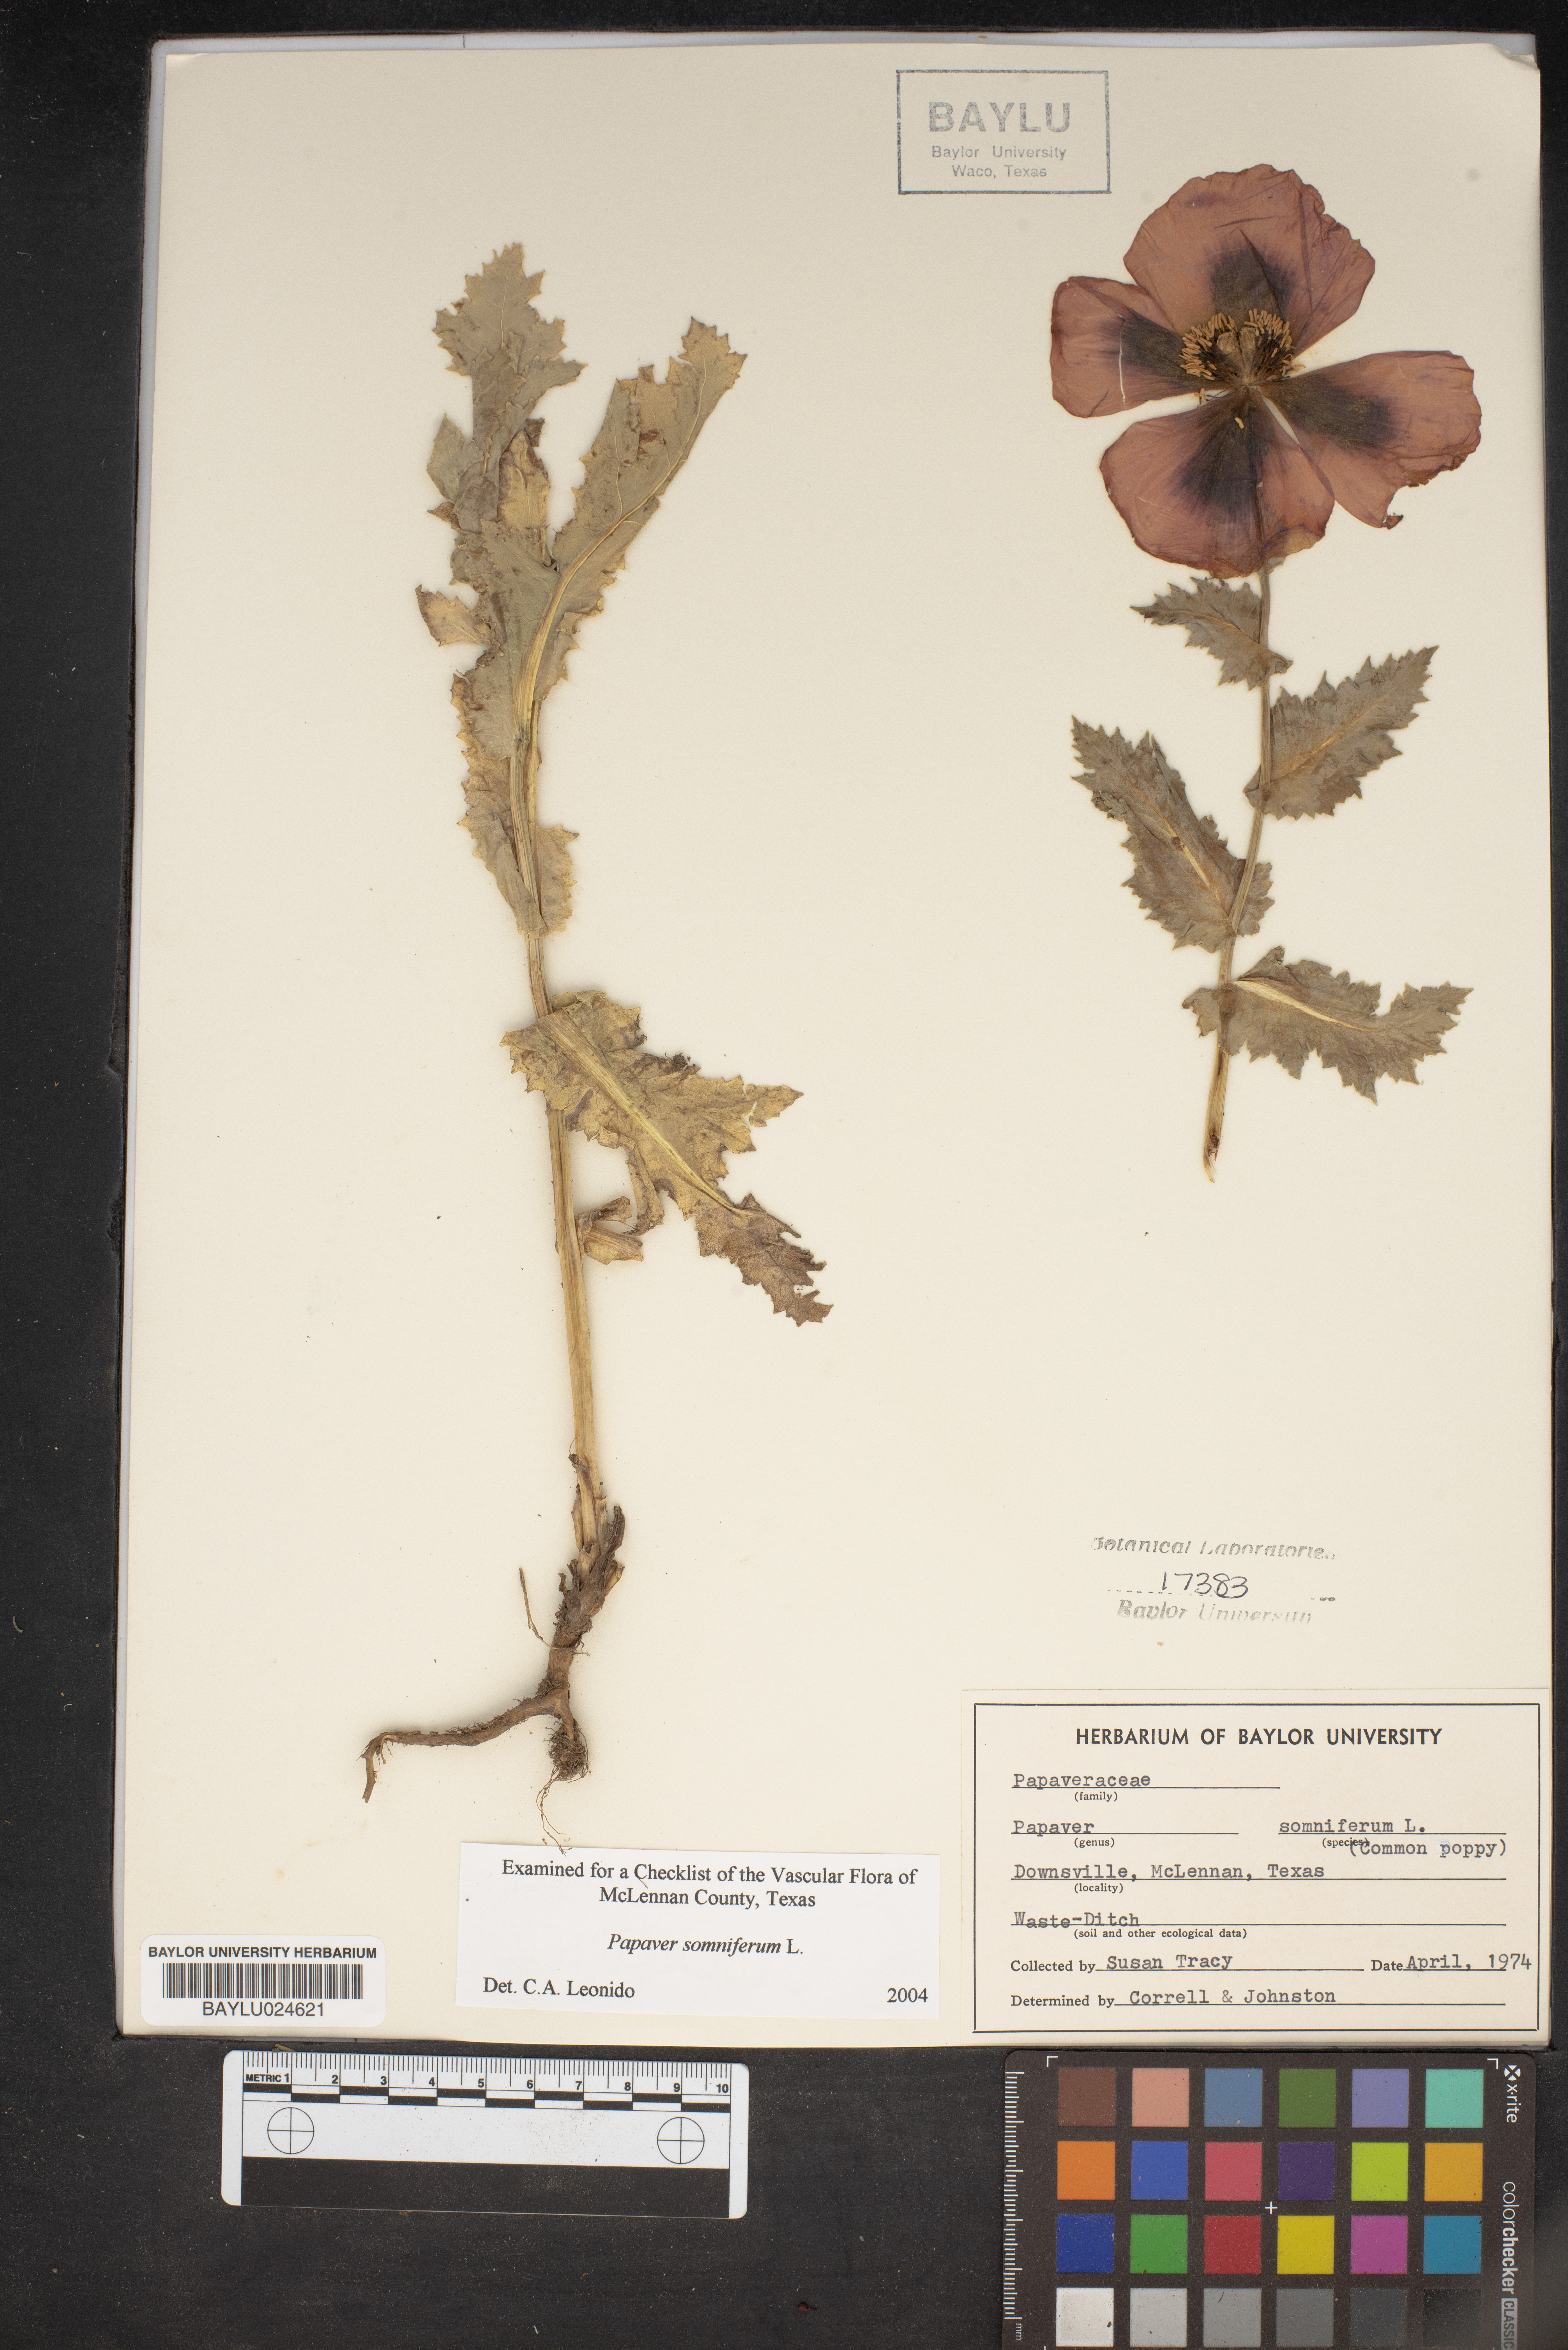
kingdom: Plantae
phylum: Tracheophyta
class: Magnoliopsida
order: Ranunculales
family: Papaveraceae
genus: Papaver
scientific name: Papaver somniferum
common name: Opium poppy
